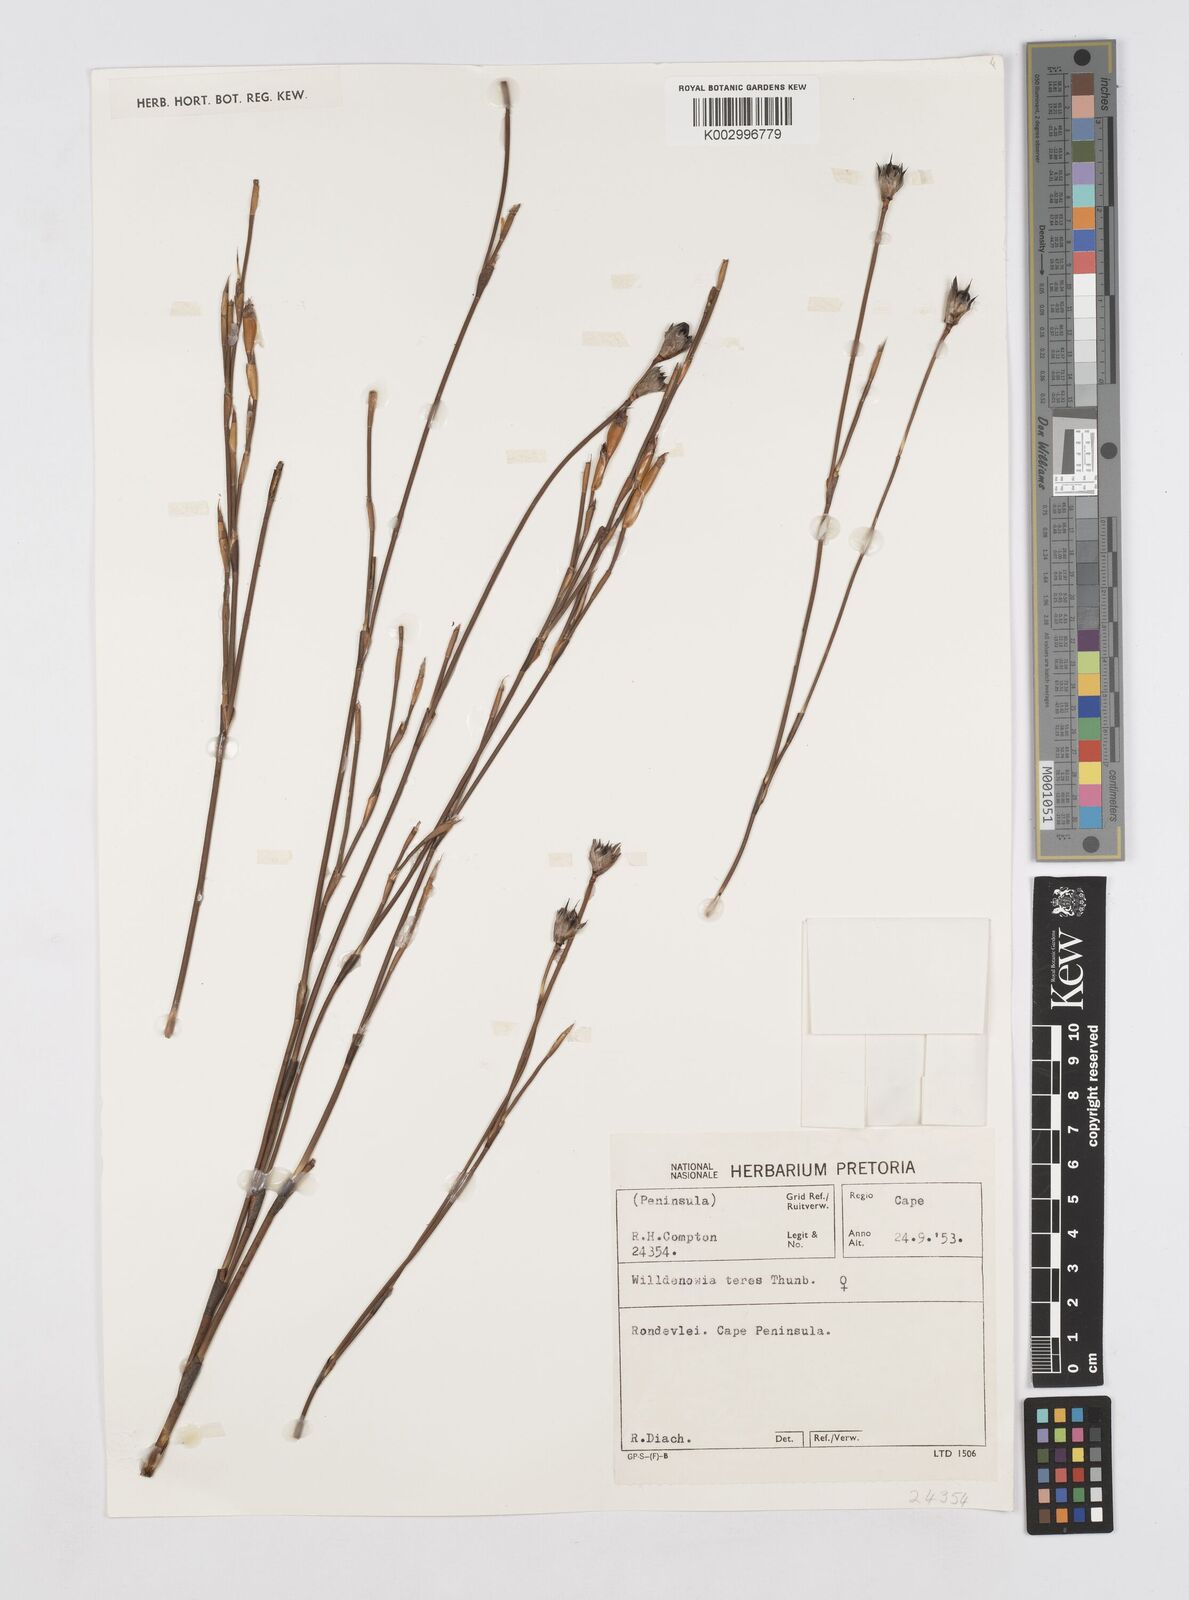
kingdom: Plantae
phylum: Tracheophyta
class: Liliopsida
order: Poales
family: Restionaceae
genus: Willdenowia
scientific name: Willdenowia teres
